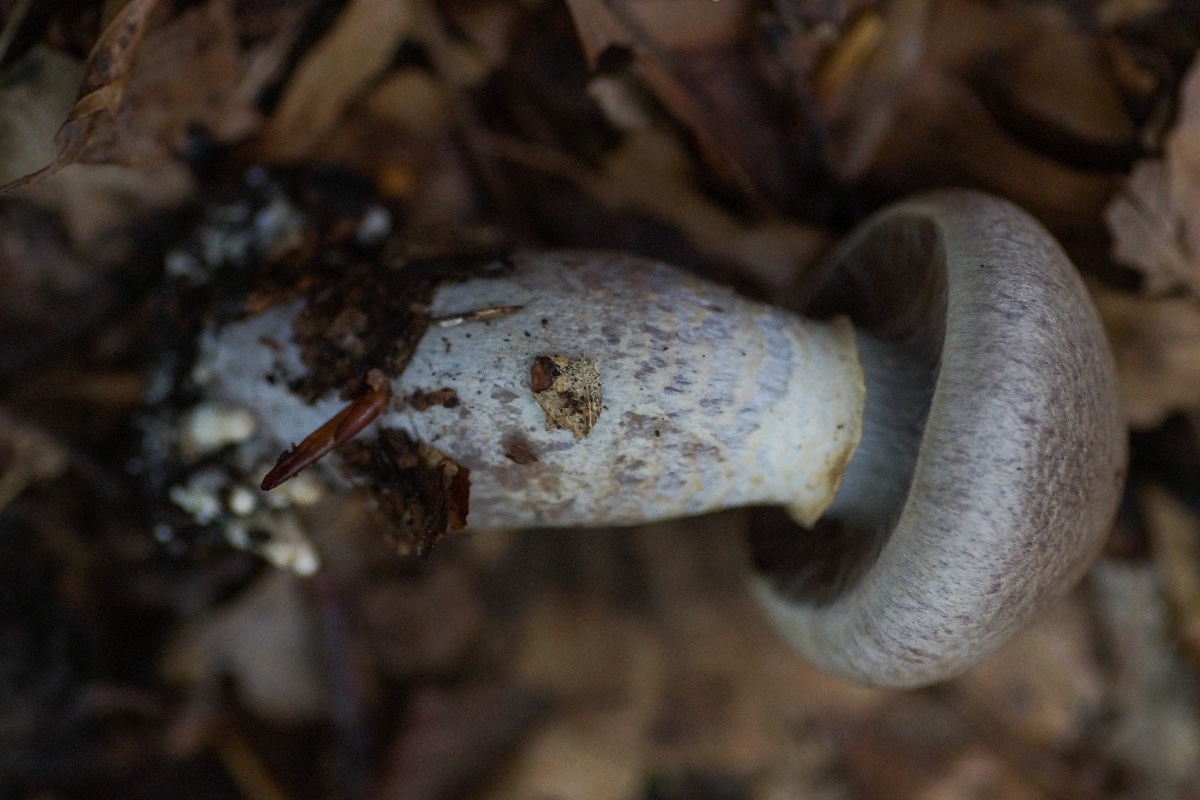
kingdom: Fungi
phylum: Basidiomycota
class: Agaricomycetes
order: Agaricales
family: Cortinariaceae
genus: Cortinarius
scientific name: Cortinarius
